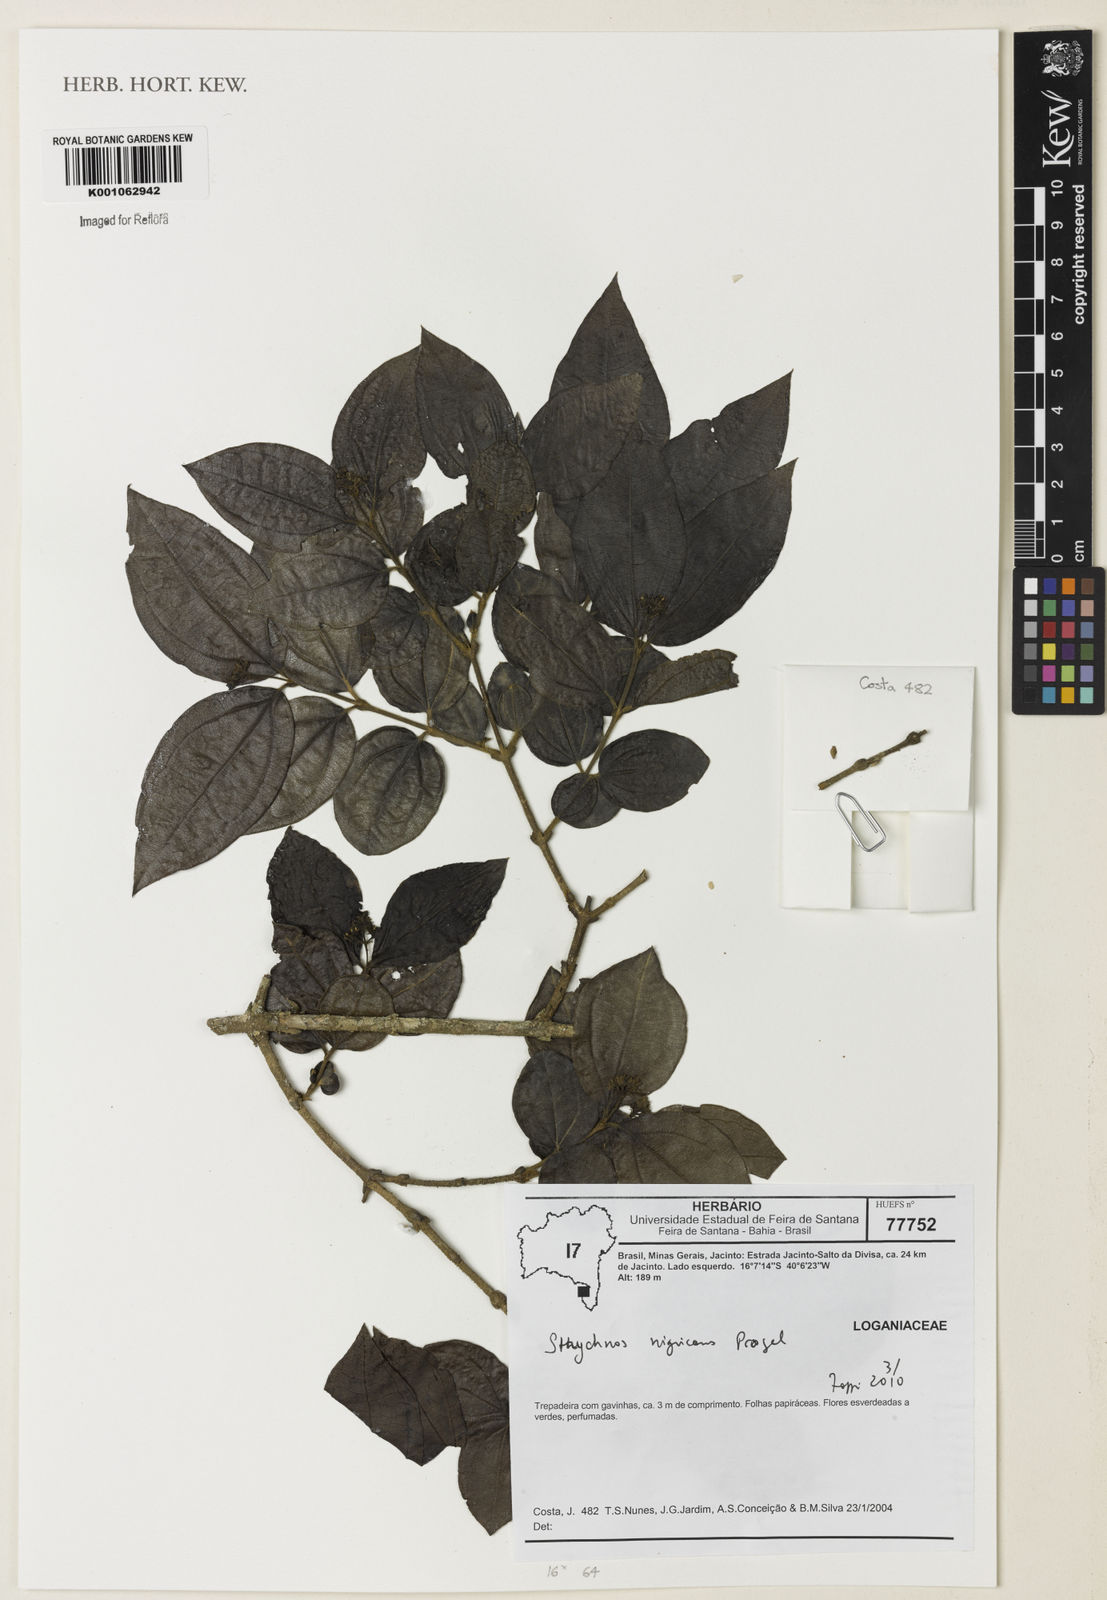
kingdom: Plantae
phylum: Tracheophyta
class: Magnoliopsida
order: Gentianales
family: Loganiaceae
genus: Strychnos
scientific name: Strychnos nigricans
